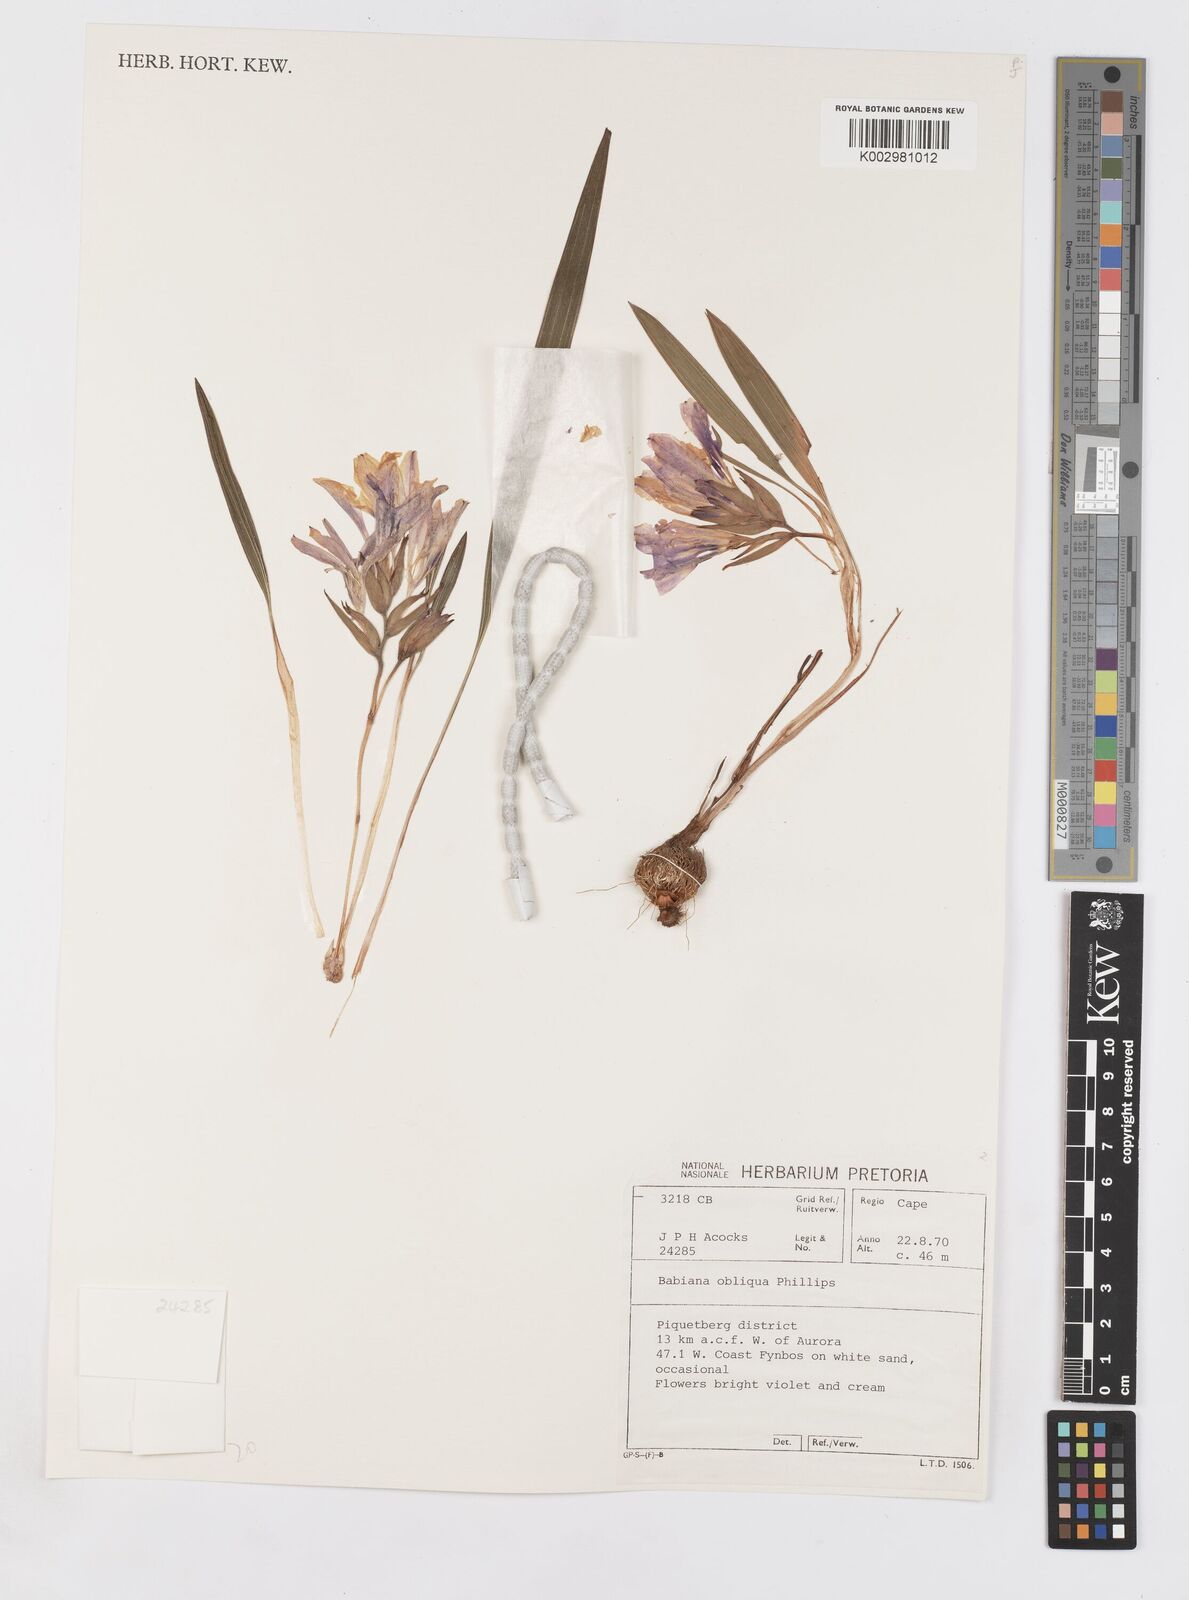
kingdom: Plantae
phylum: Tracheophyta
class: Liliopsida
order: Asparagales
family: Iridaceae
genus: Babiana
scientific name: Babiana ambigua
